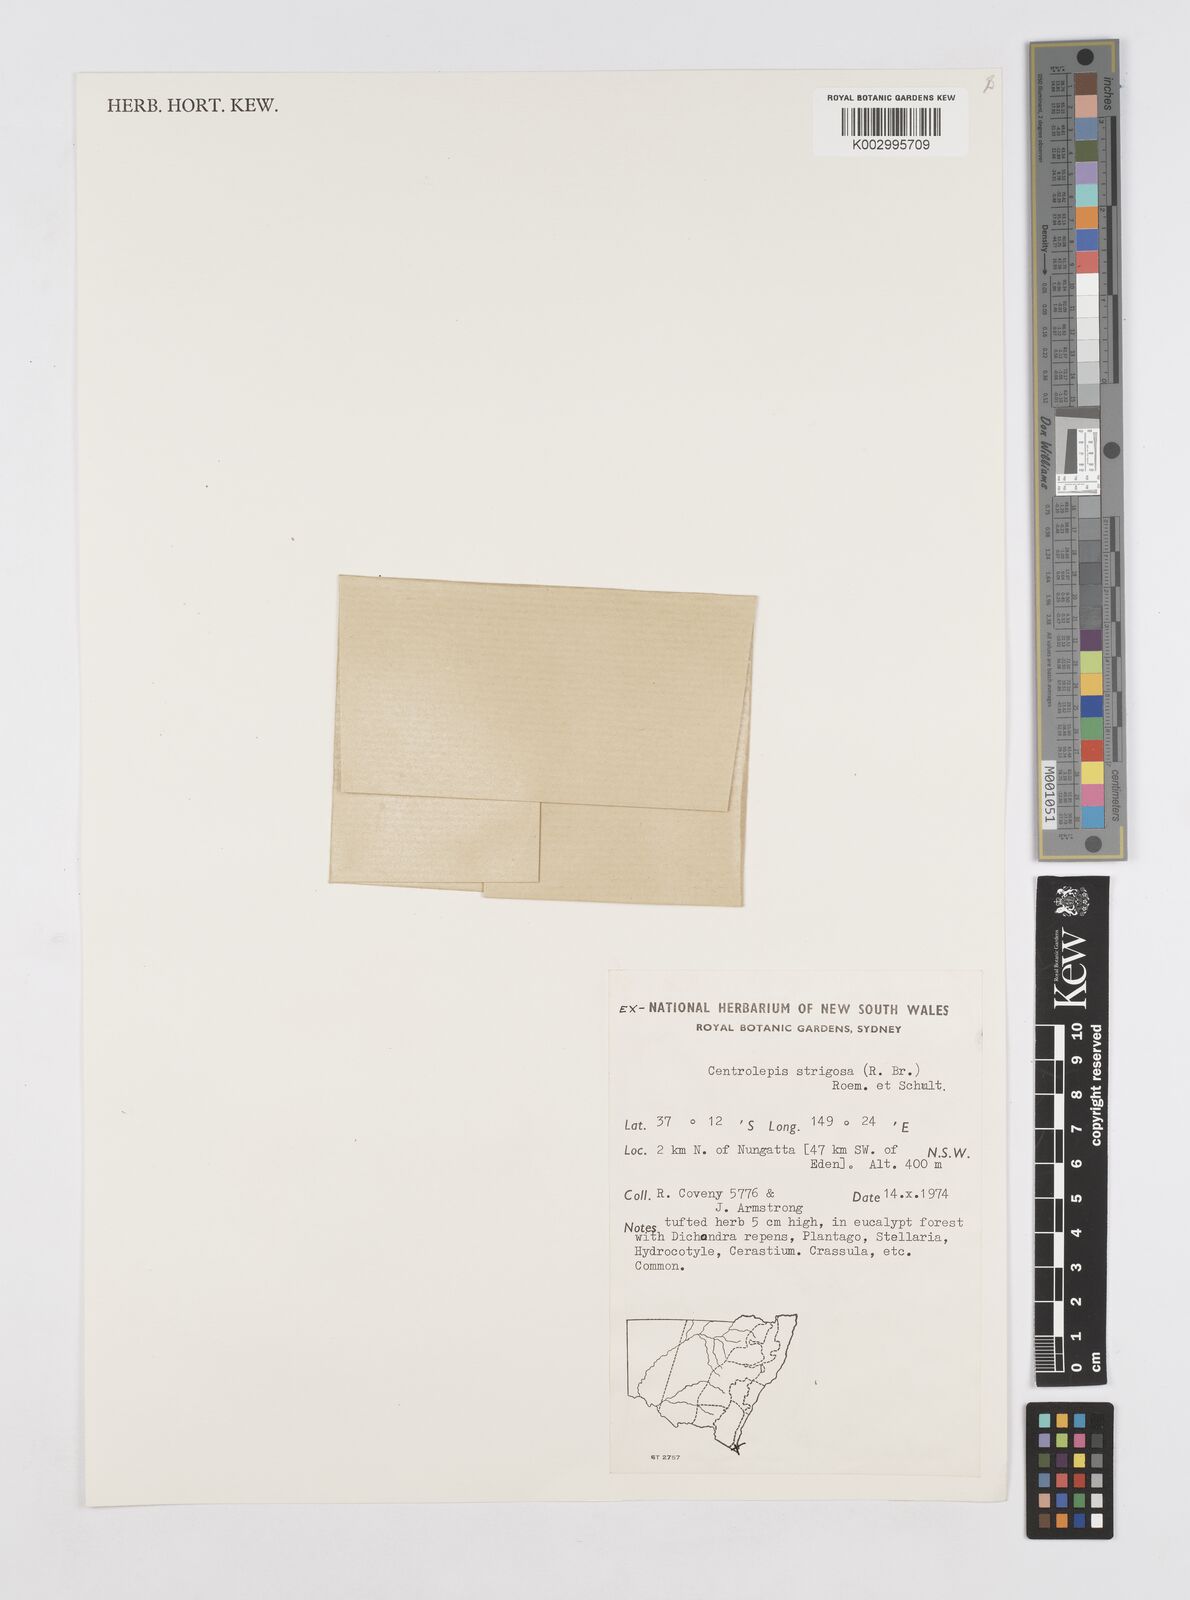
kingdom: Plantae
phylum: Tracheophyta
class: Liliopsida
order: Poales
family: Restionaceae
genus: Centrolepis
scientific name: Centrolepis strigosa
